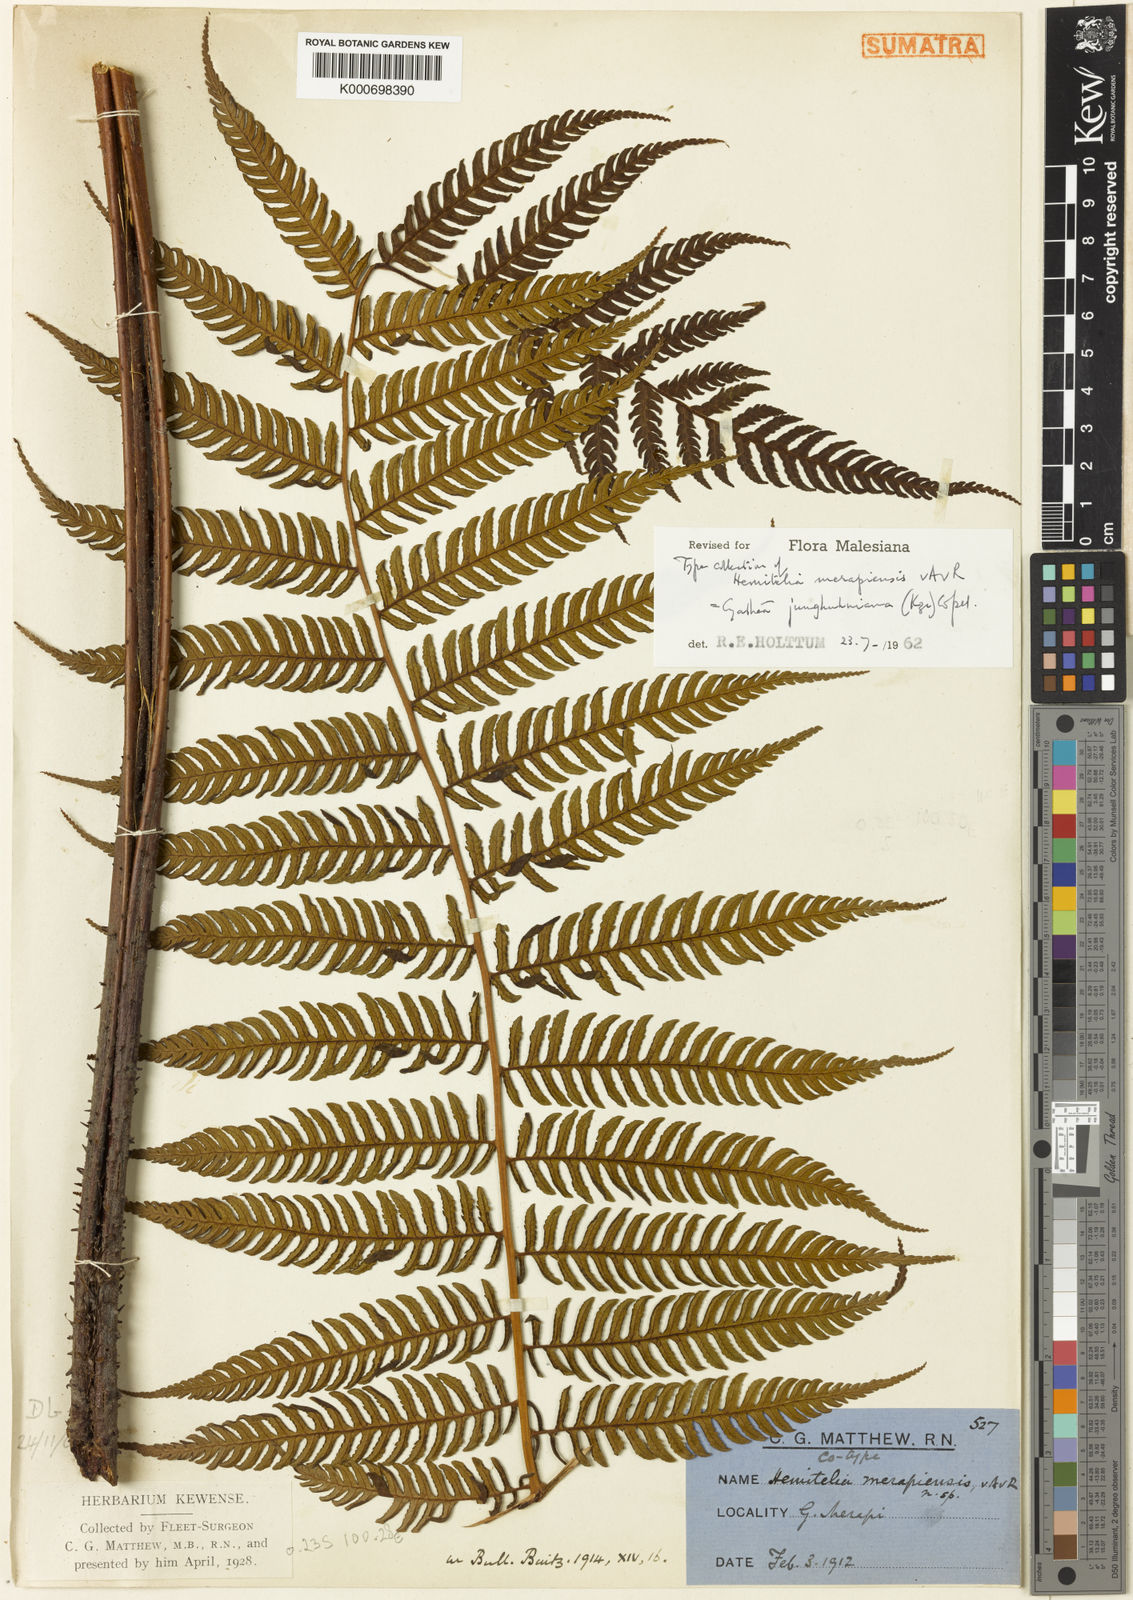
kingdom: Plantae
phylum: Tracheophyta
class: Polypodiopsida
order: Cyatheales
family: Cyatheaceae
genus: Alsophila
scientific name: Alsophila junghuhniana
